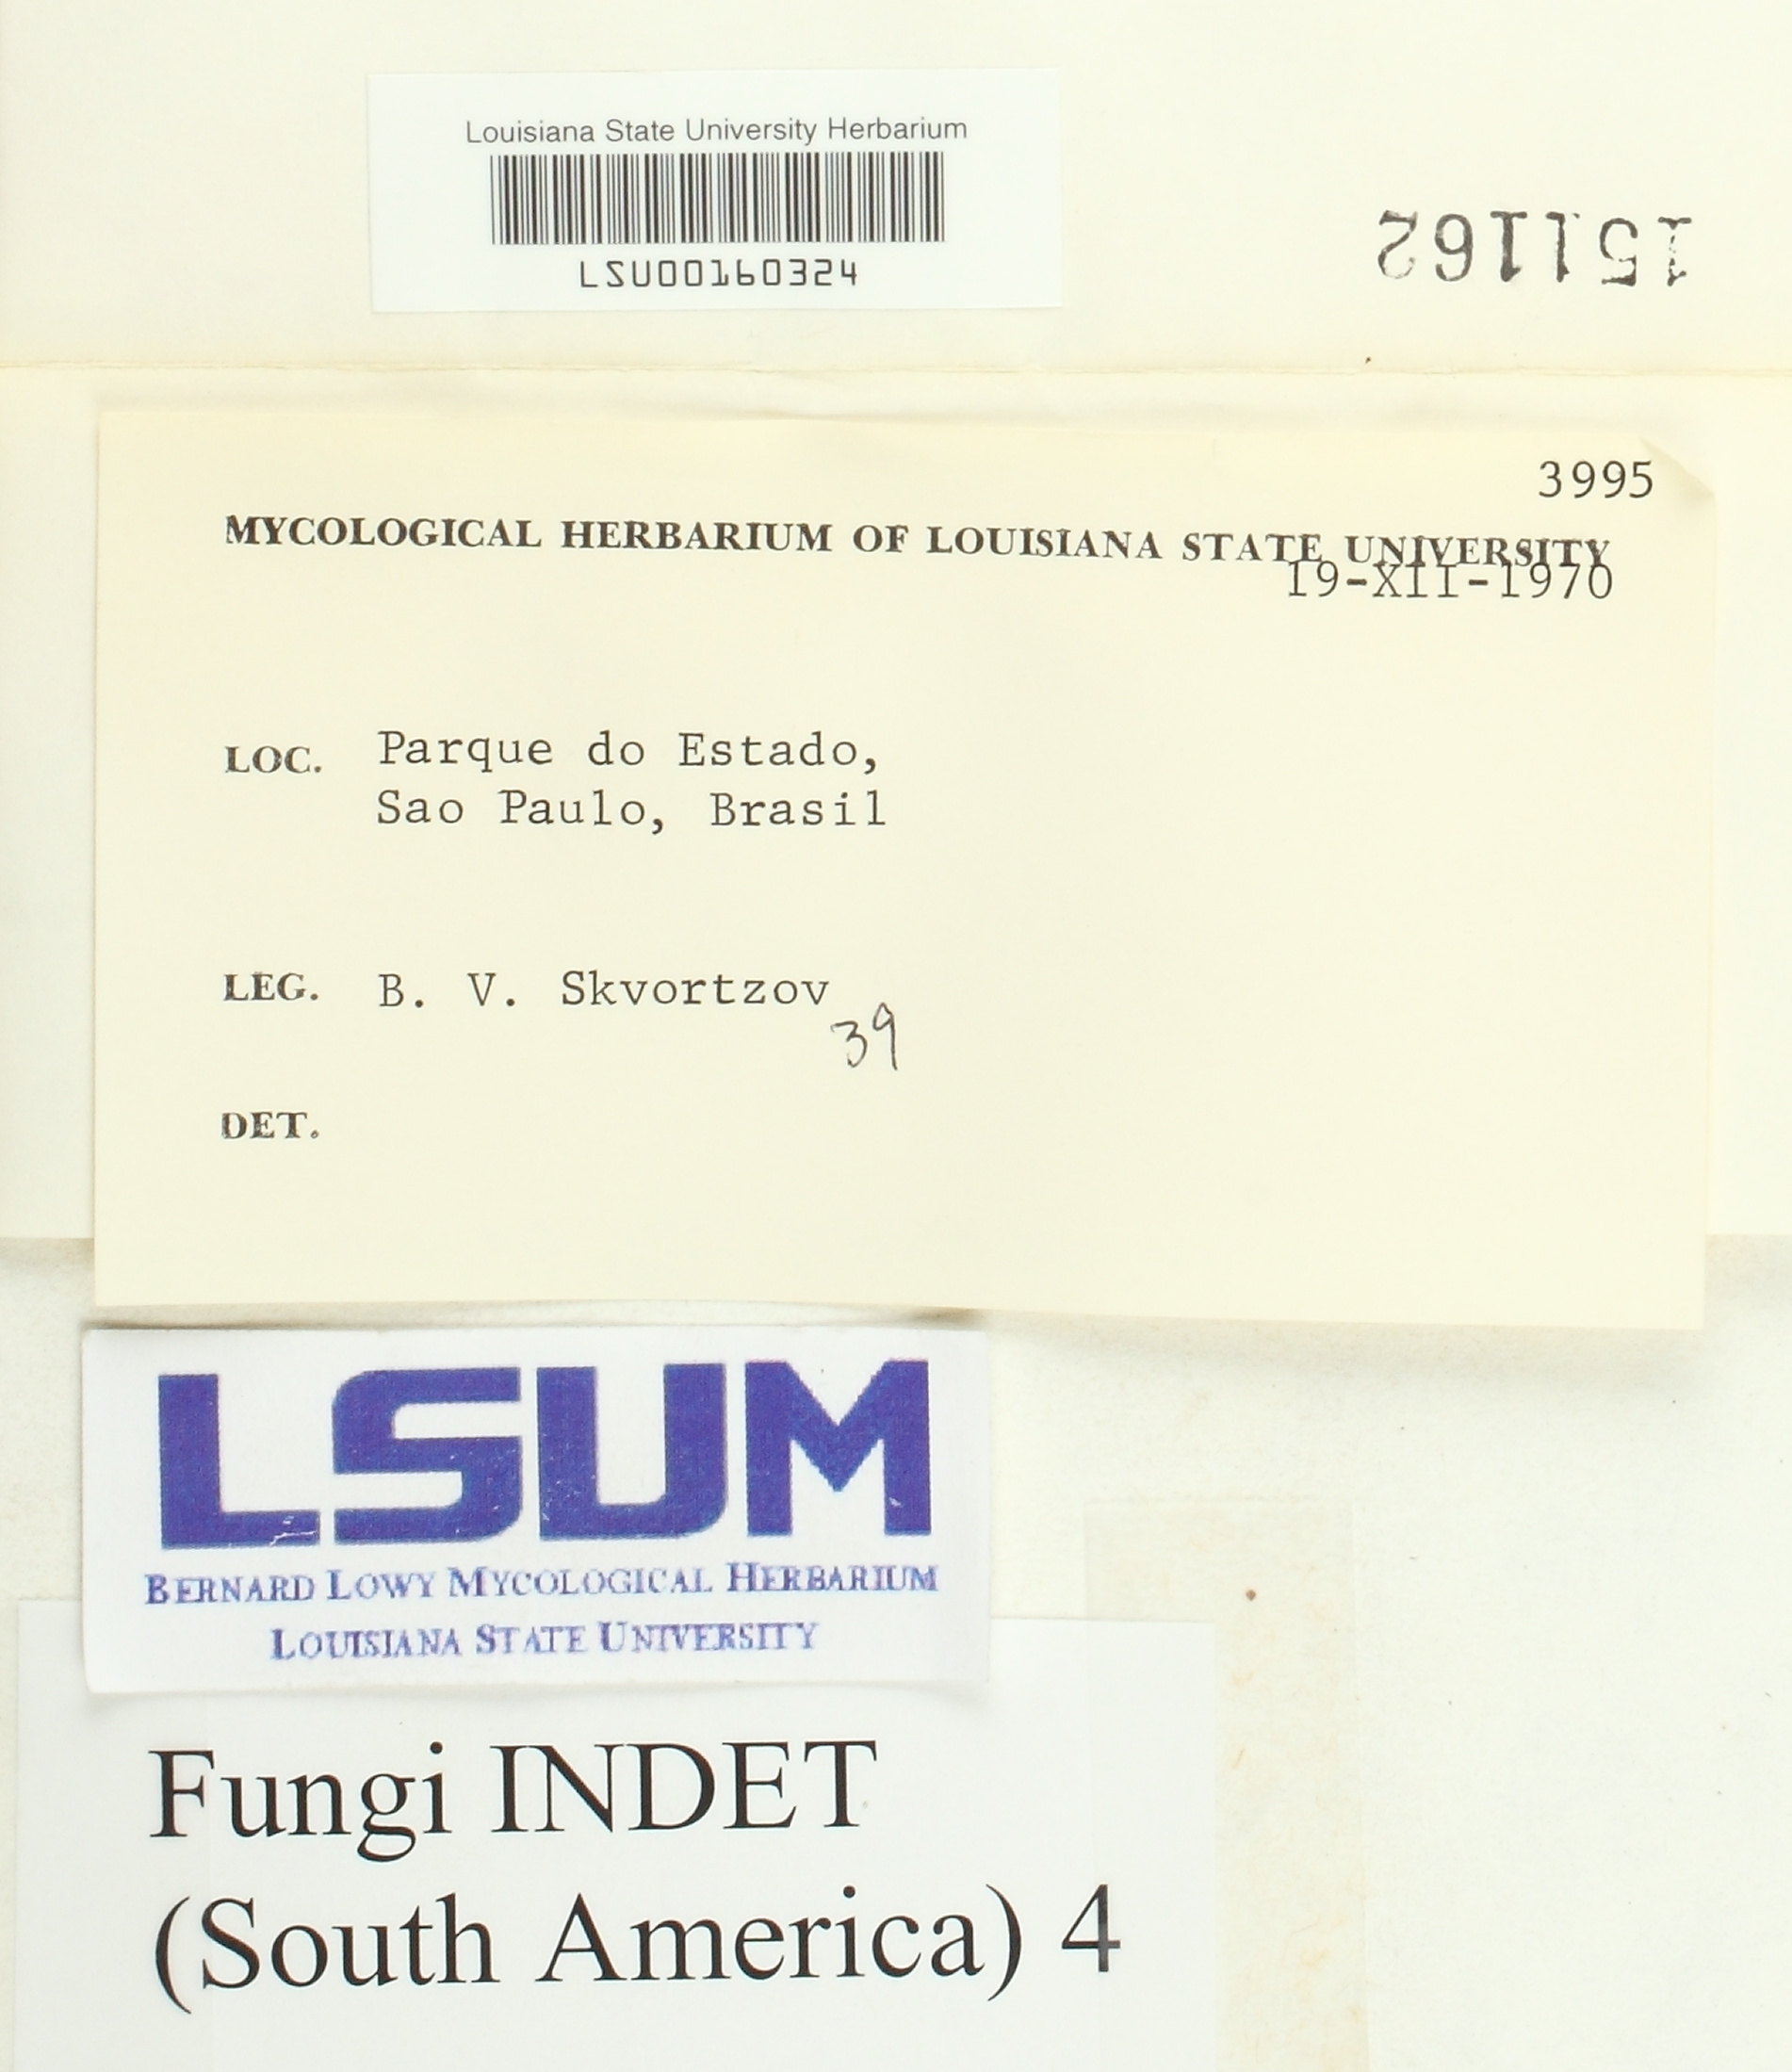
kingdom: Fungi
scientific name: Fungi
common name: Fungi
